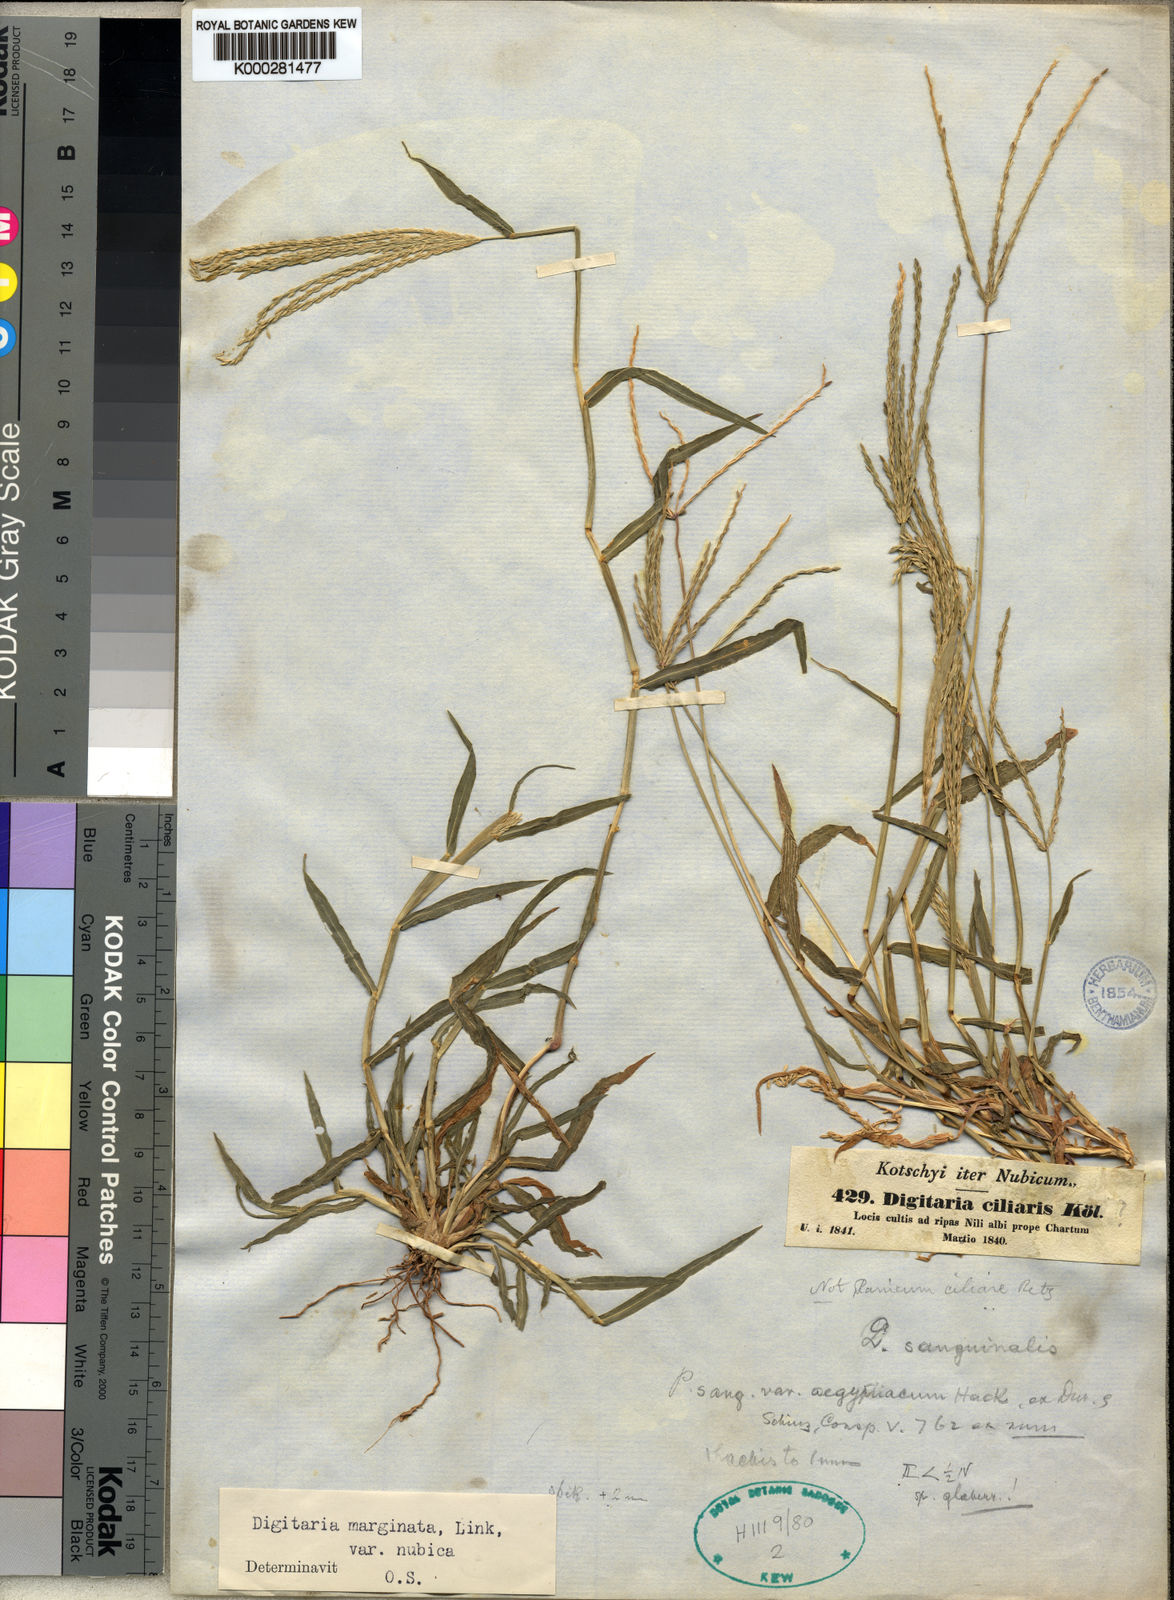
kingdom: Plantae
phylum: Tracheophyta
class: Liliopsida
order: Poales
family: Poaceae
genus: Digitaria
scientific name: Digitaria ciliaris
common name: Tropical finger-grass
